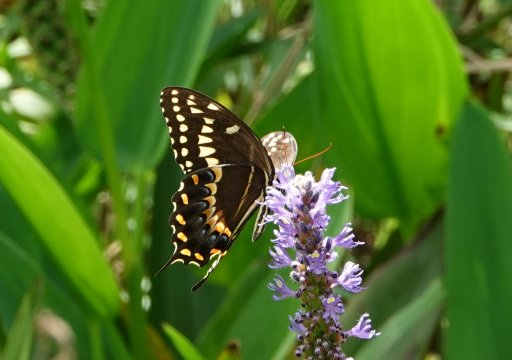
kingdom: Animalia
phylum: Arthropoda
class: Insecta
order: Lepidoptera
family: Papilionidae
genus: Pterourus
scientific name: Pterourus palamedes
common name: Palamedes Swallowtail
